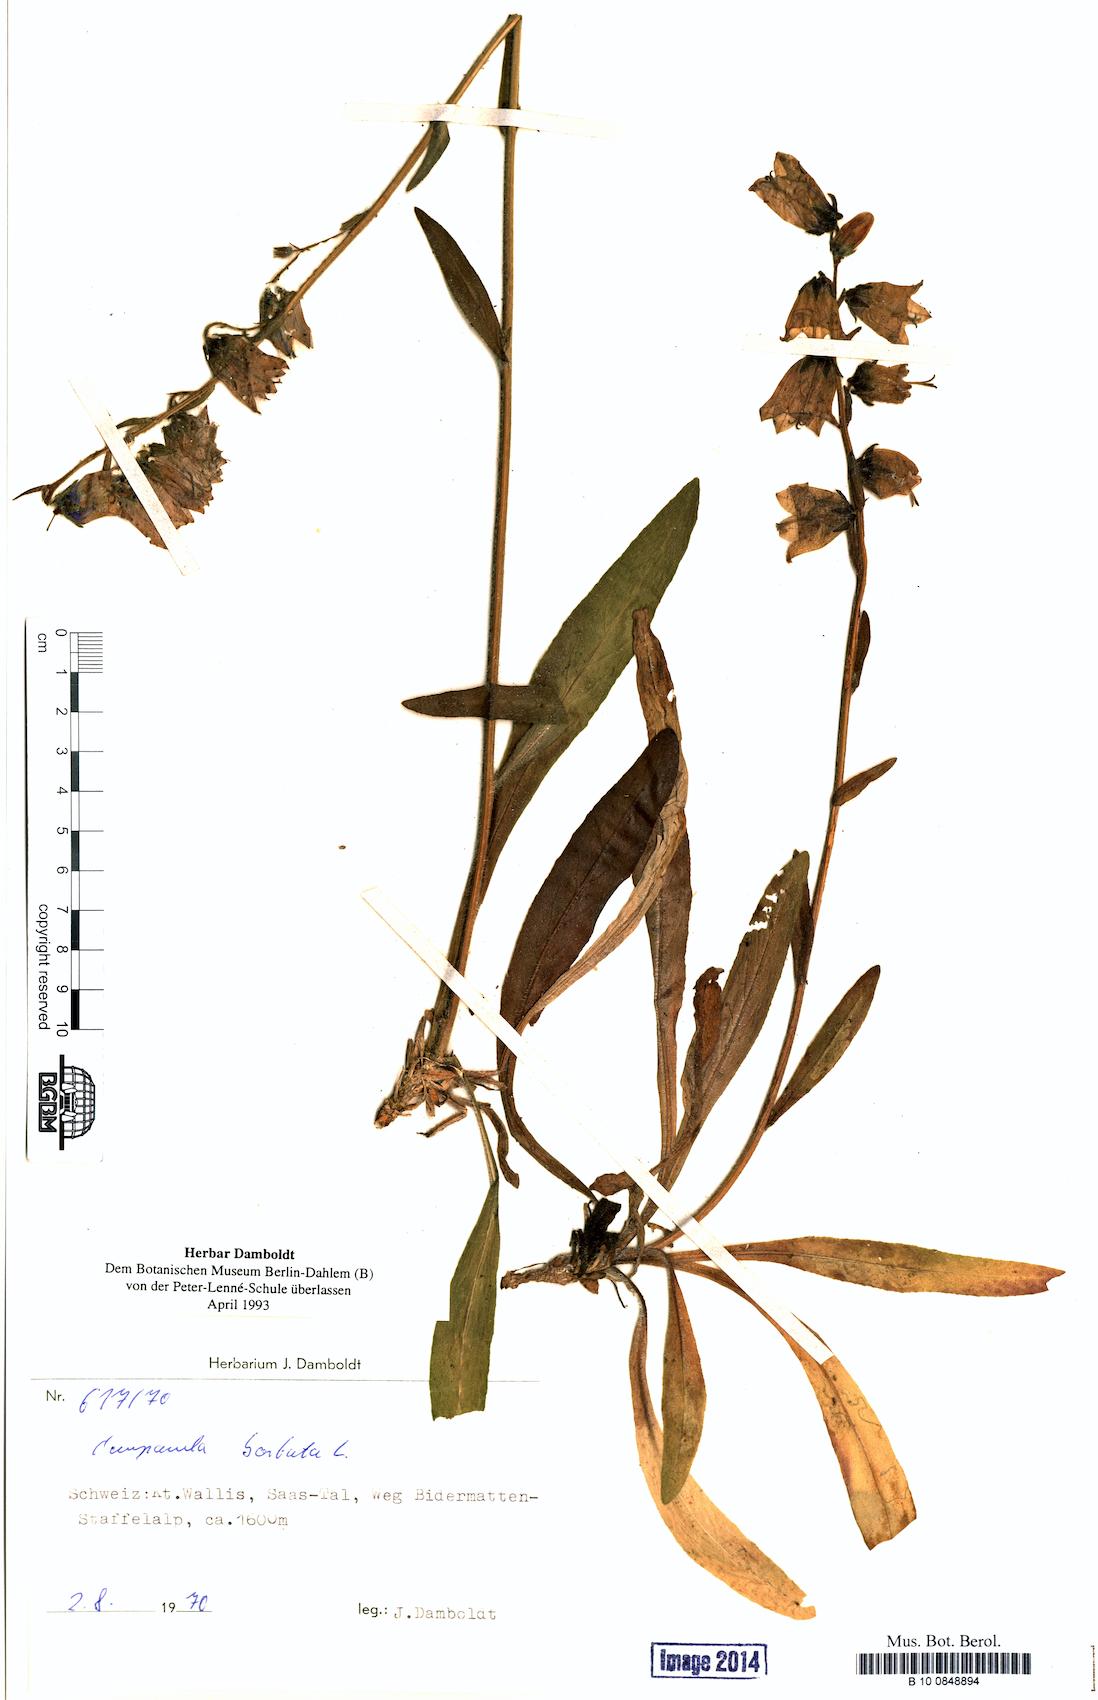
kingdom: Plantae
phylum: Tracheophyta
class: Magnoliopsida
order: Asterales
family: Campanulaceae
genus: Campanula
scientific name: Campanula barbata
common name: Bearded bellflower
